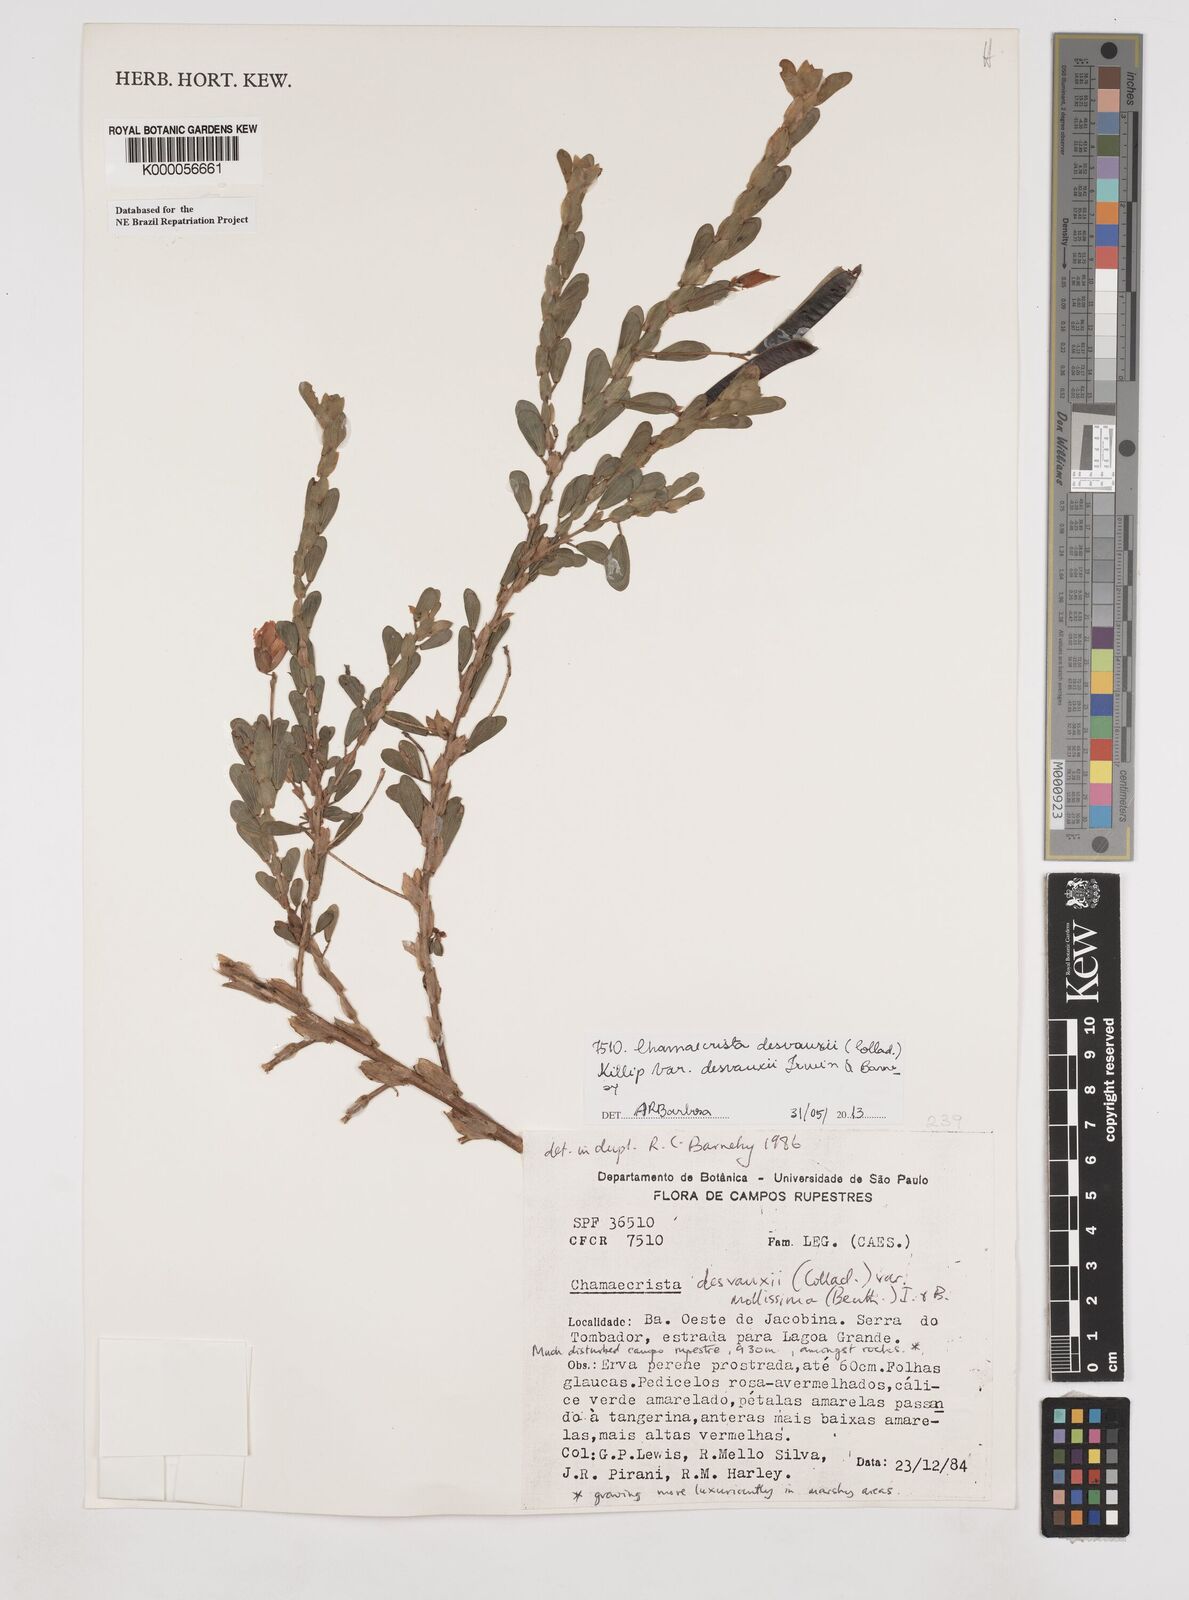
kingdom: Plantae
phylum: Tracheophyta
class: Magnoliopsida
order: Fabales
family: Fabaceae
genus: Chamaecrista
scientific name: Chamaecrista desvauxii
